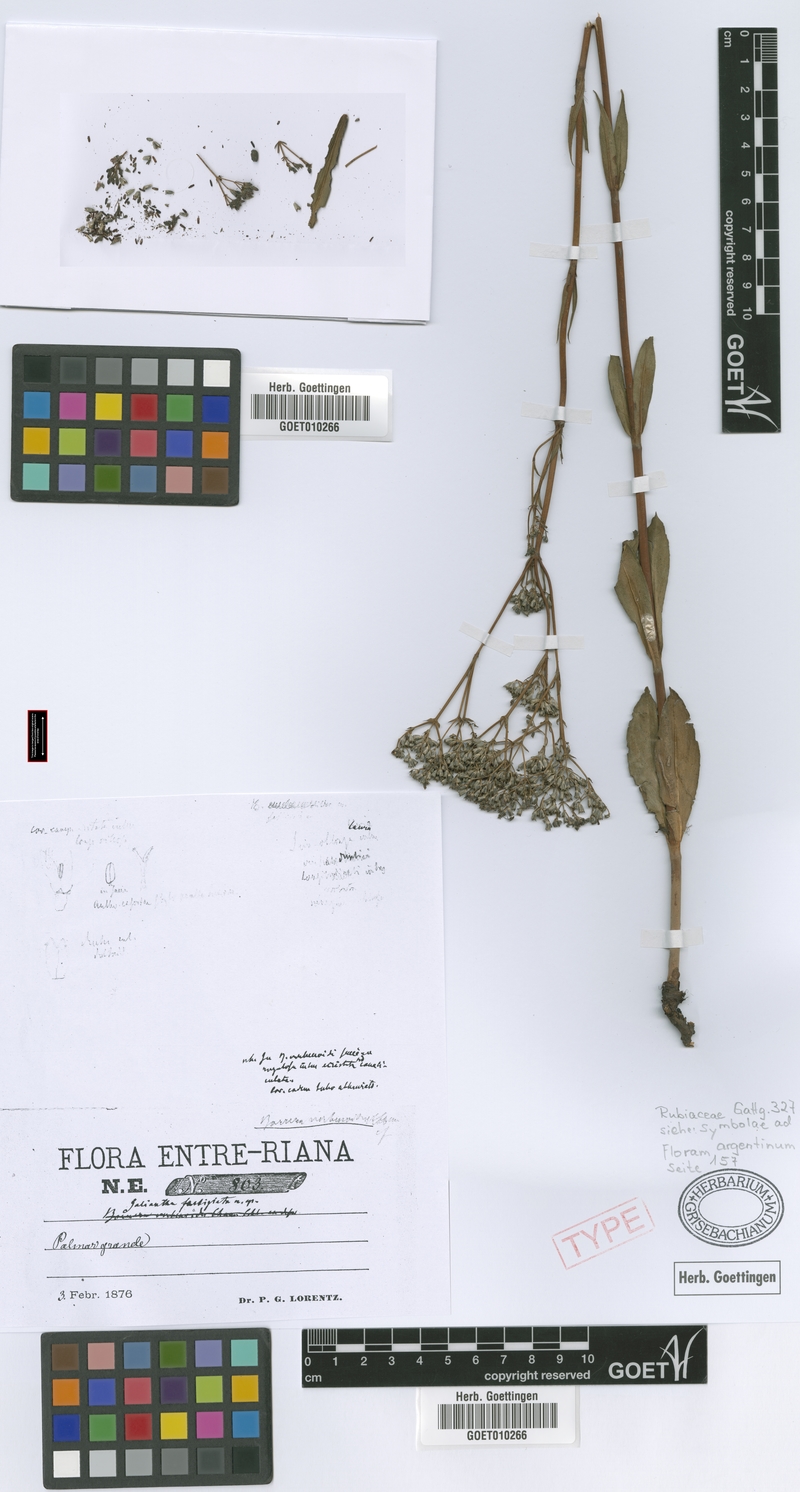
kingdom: Plantae
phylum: Tracheophyta
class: Magnoliopsida
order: Gentianales
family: Rubiaceae
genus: Galianthe
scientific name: Galianthe fastigiata
